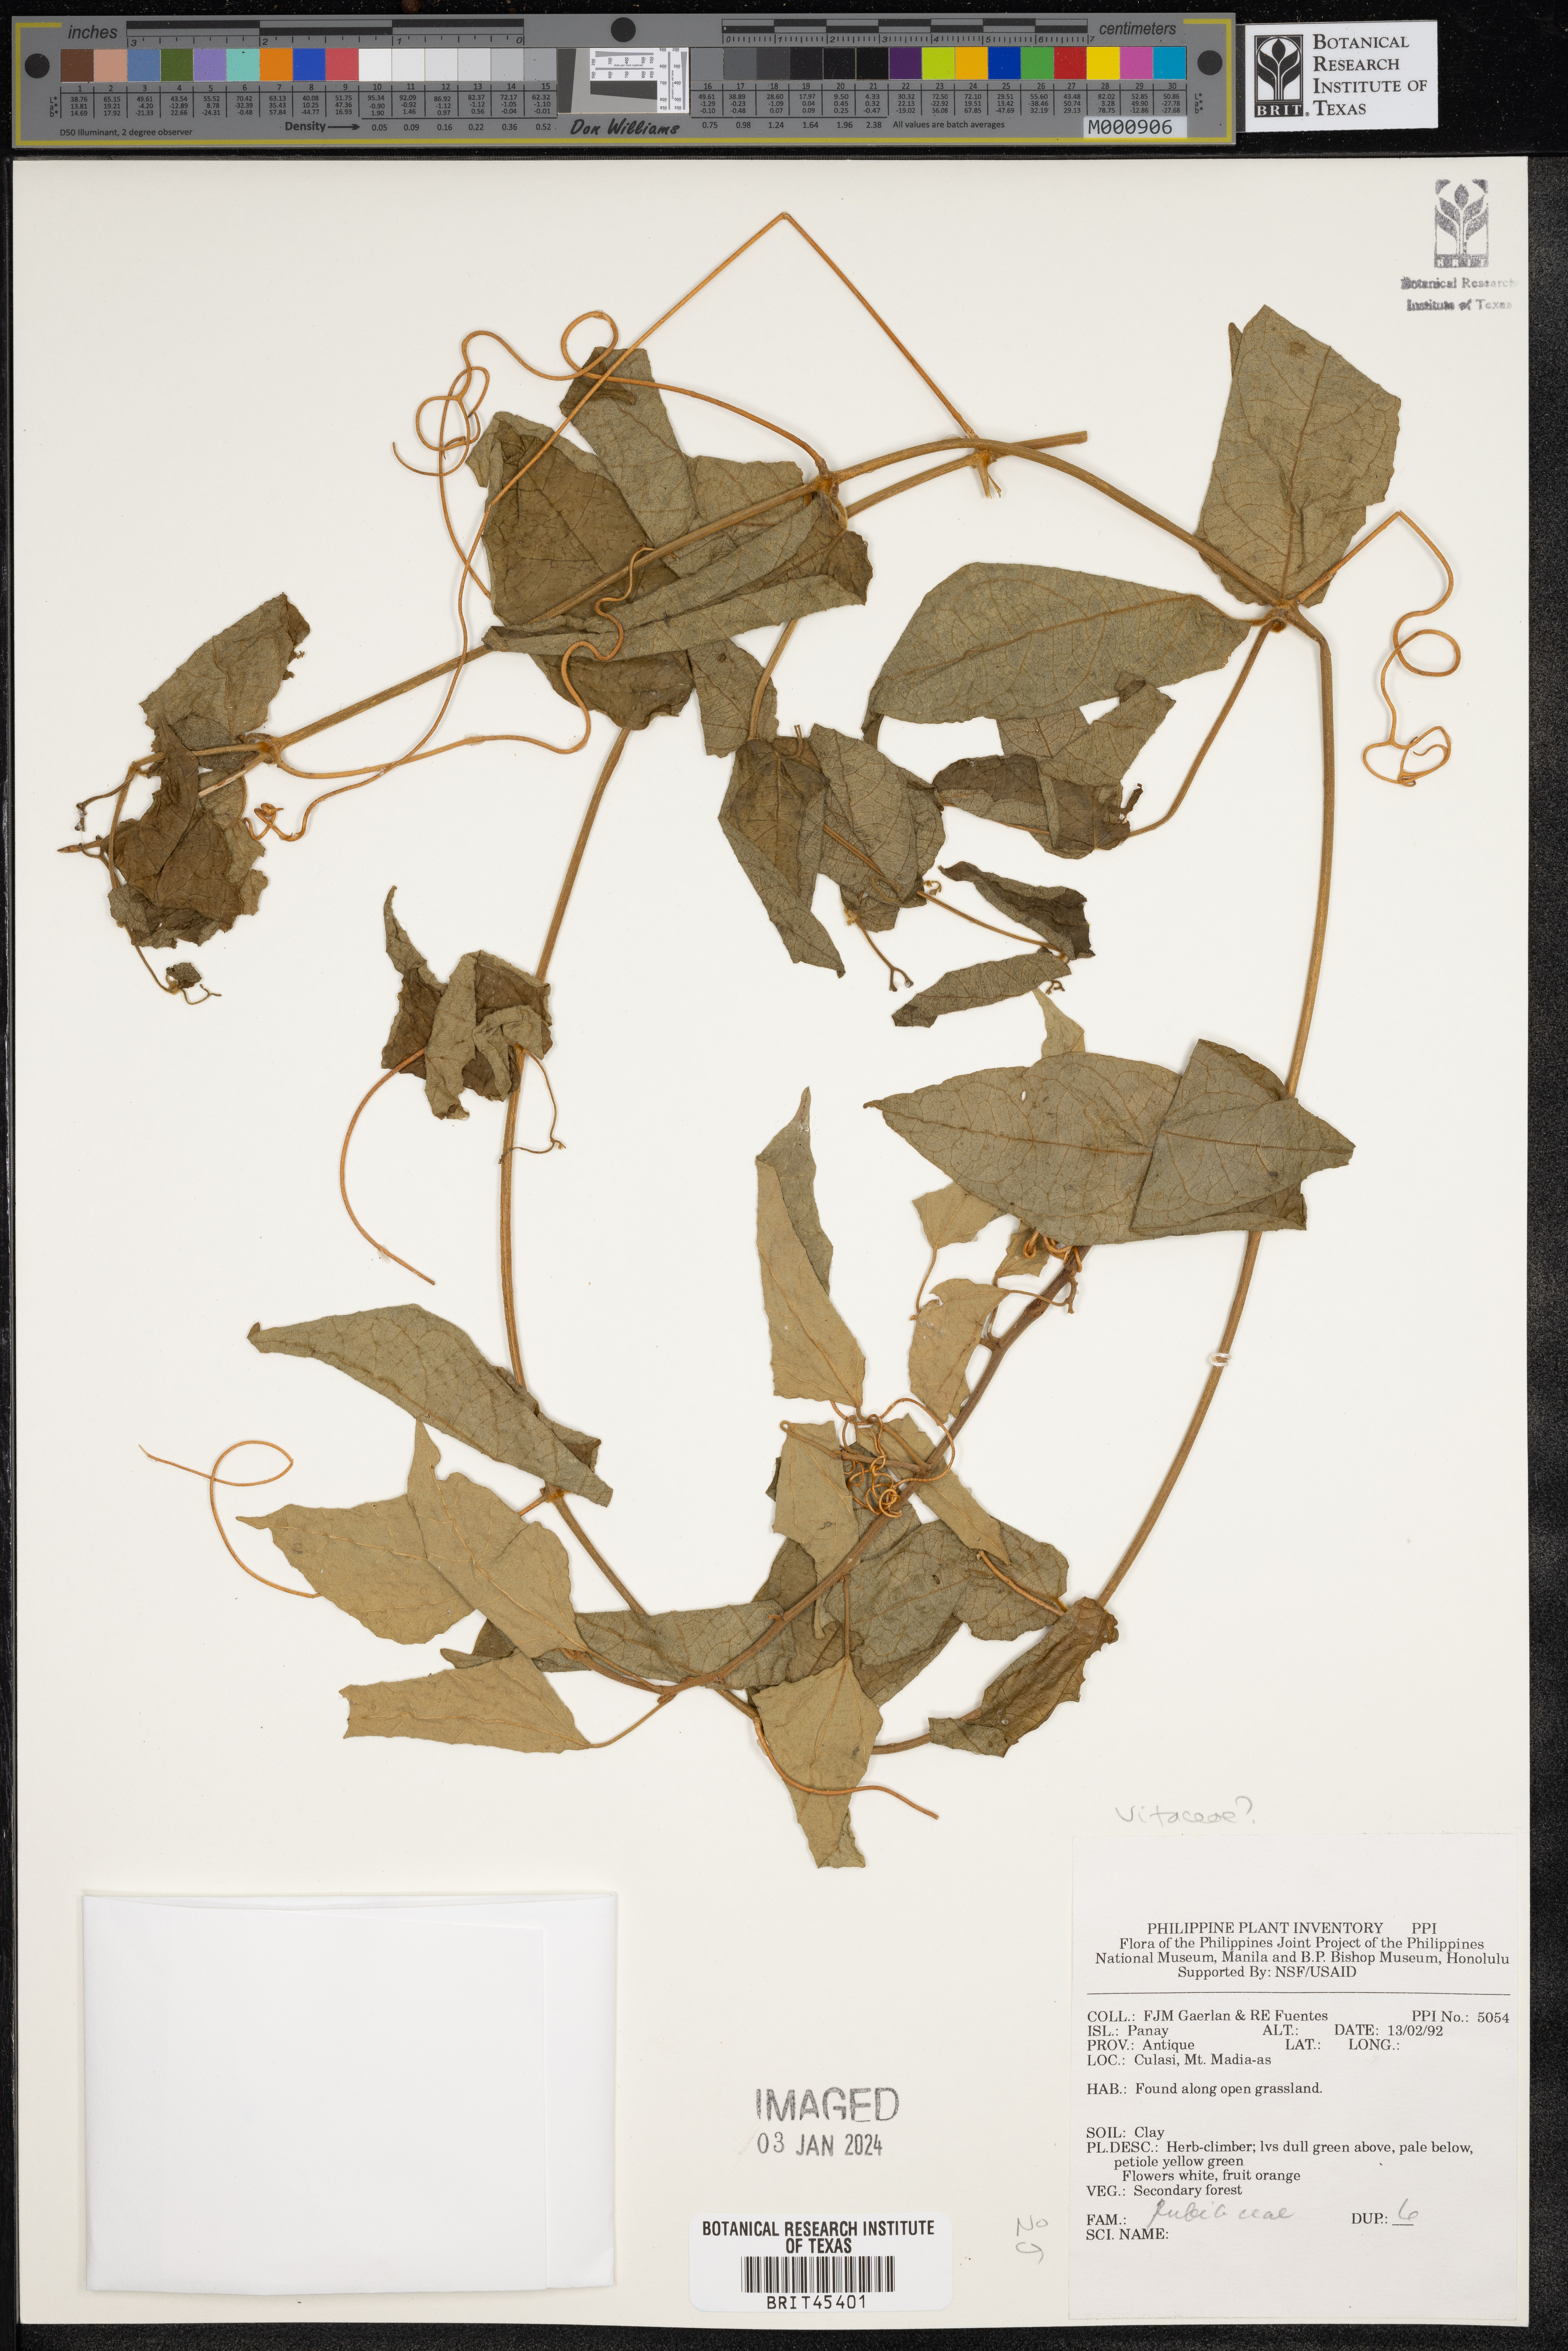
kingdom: Plantae
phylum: Tracheophyta
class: Magnoliopsida
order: Vitales
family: Vitaceae
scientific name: Vitaceae
